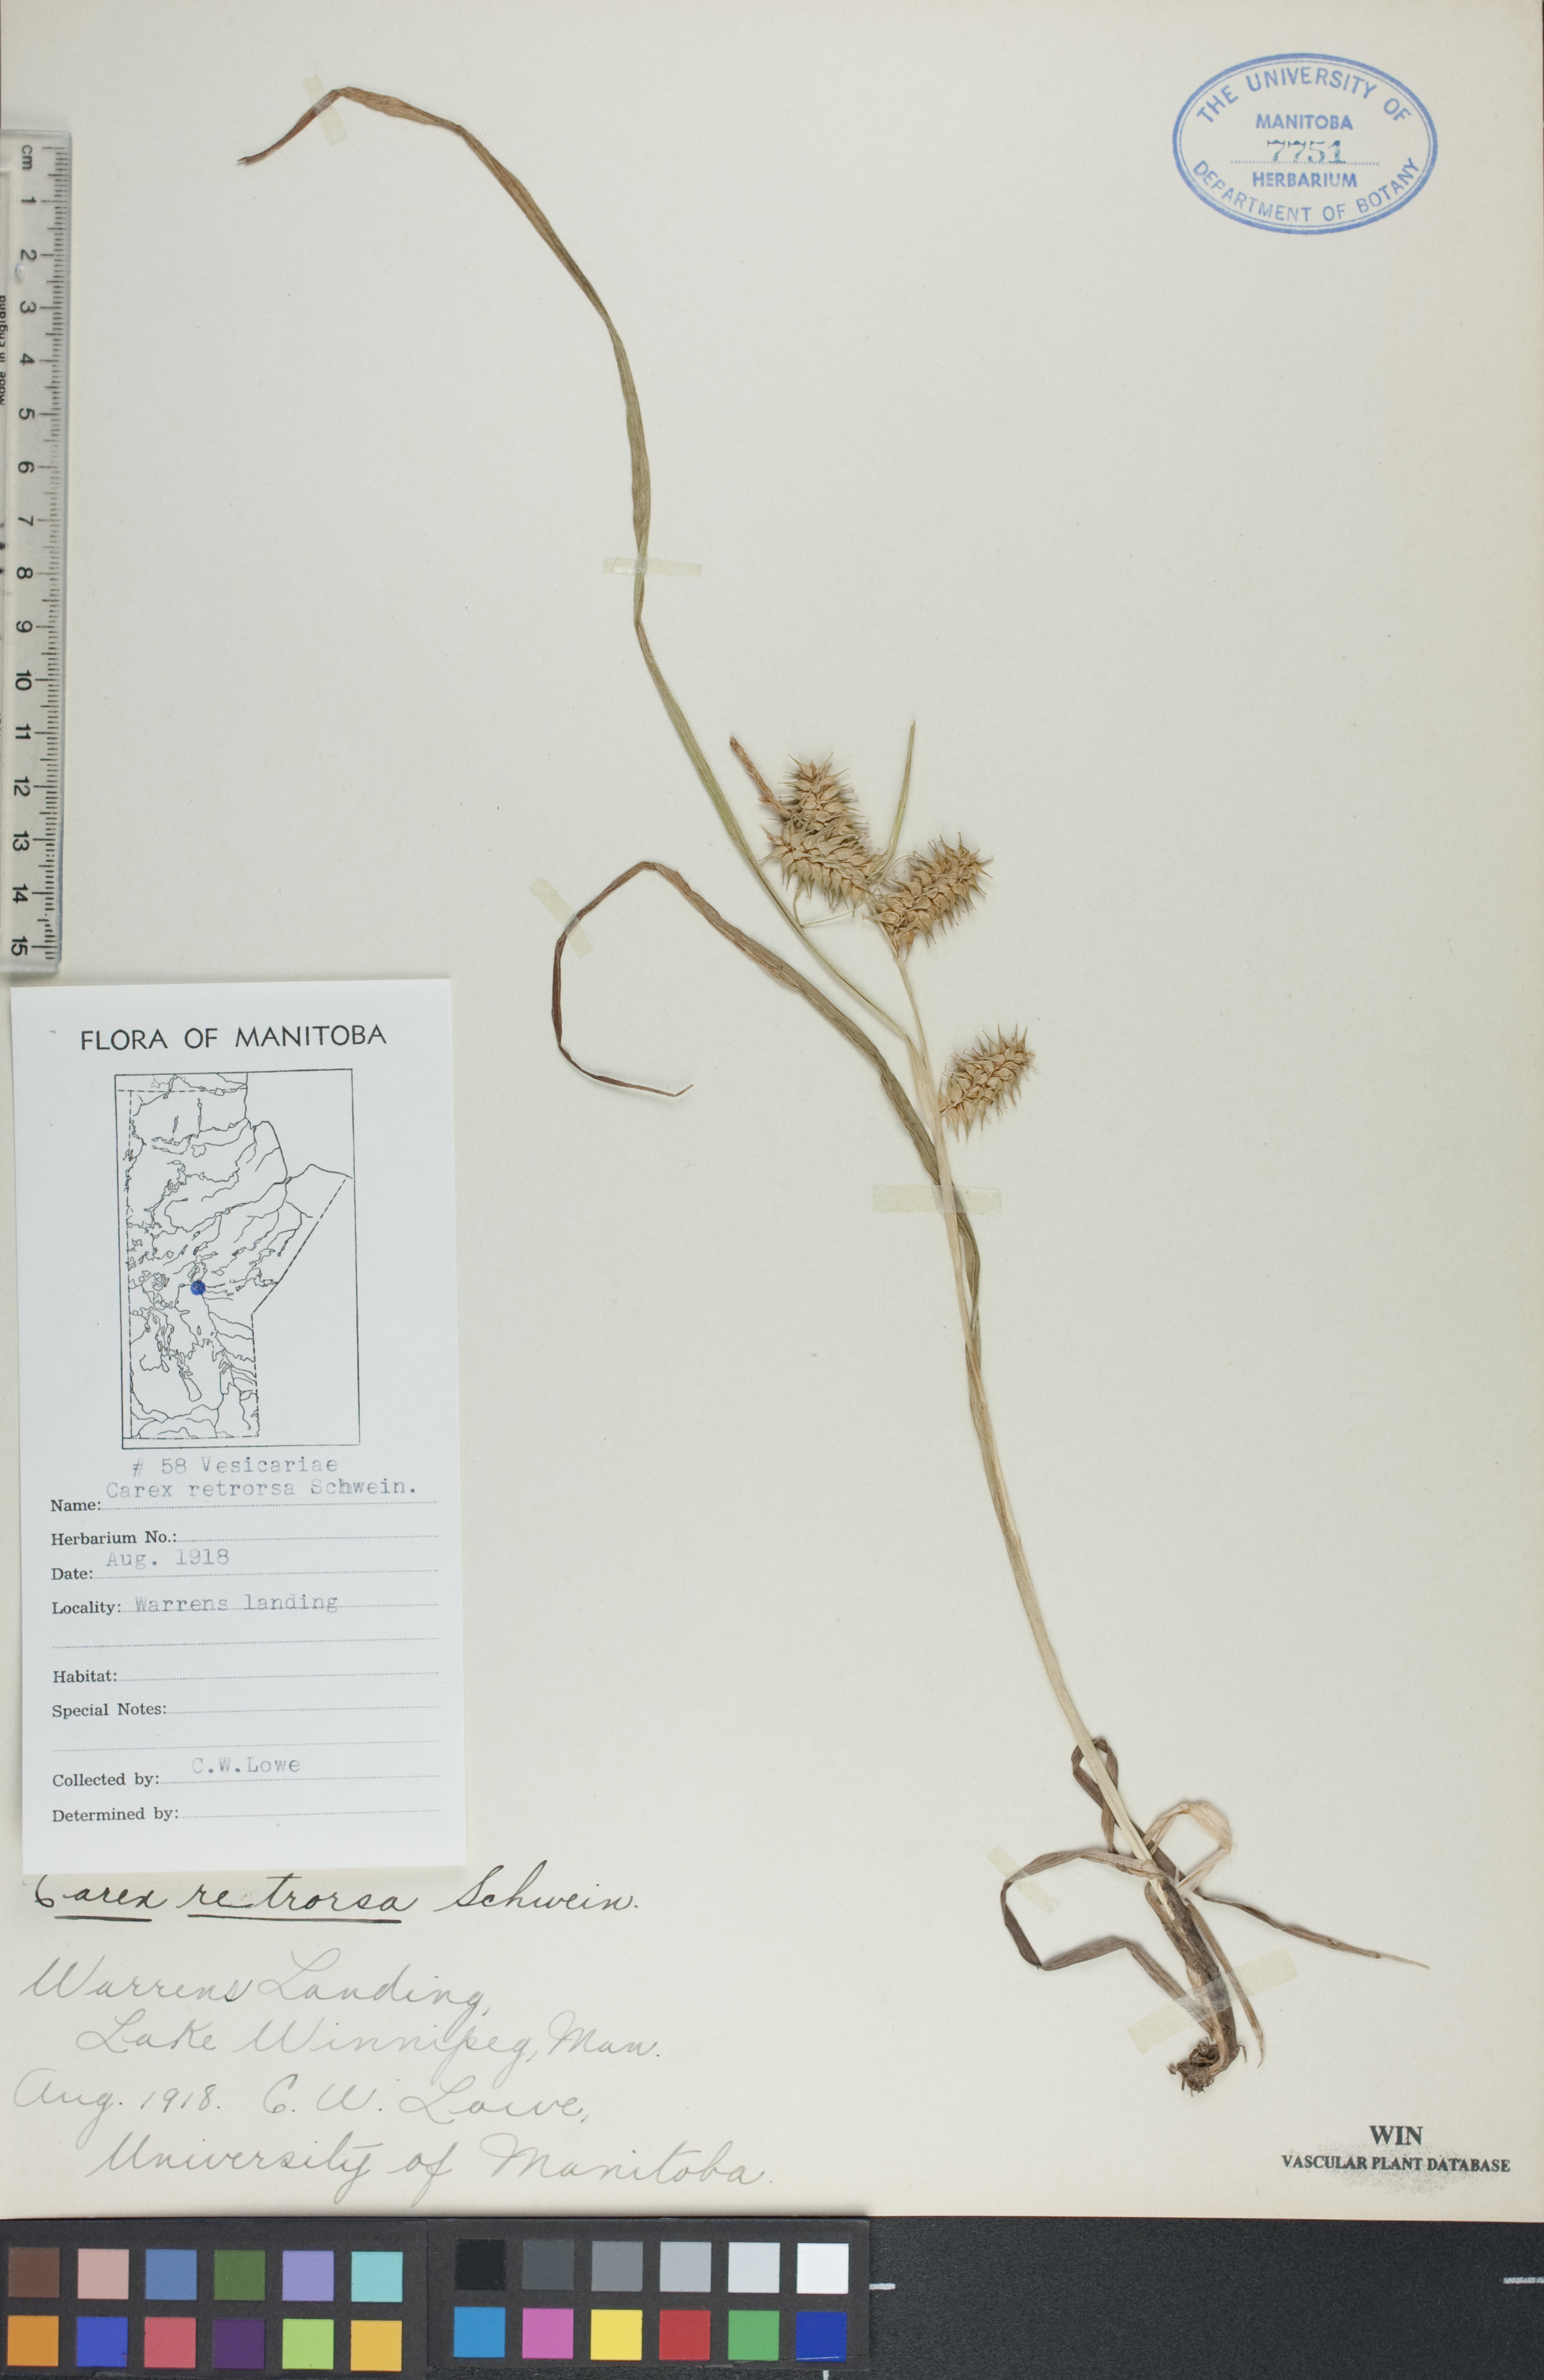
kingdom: Plantae
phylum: Tracheophyta
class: Liliopsida
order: Poales
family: Cyperaceae
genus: Carex
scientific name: Carex retrorsa
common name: Knot-sheath sedge
